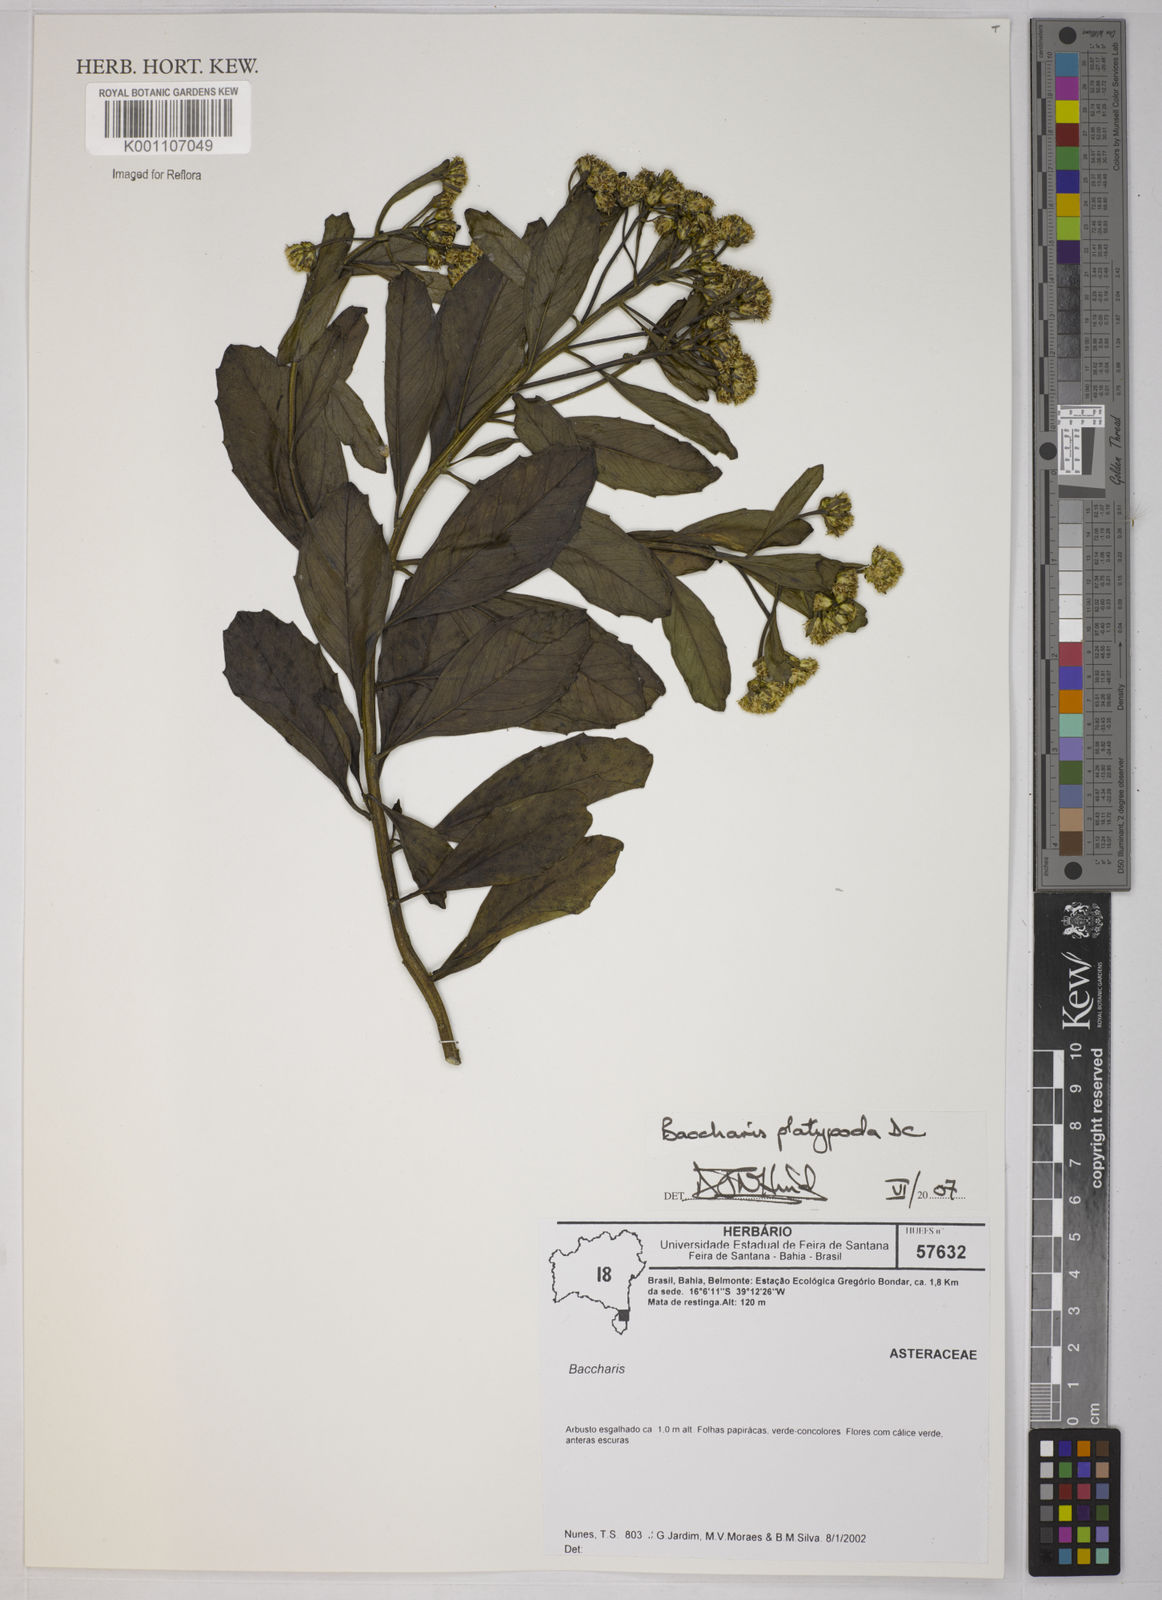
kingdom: Plantae
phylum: Tracheophyta
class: Magnoliopsida
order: Asterales
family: Asteraceae
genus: Baccharis
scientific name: Baccharis platypoda
